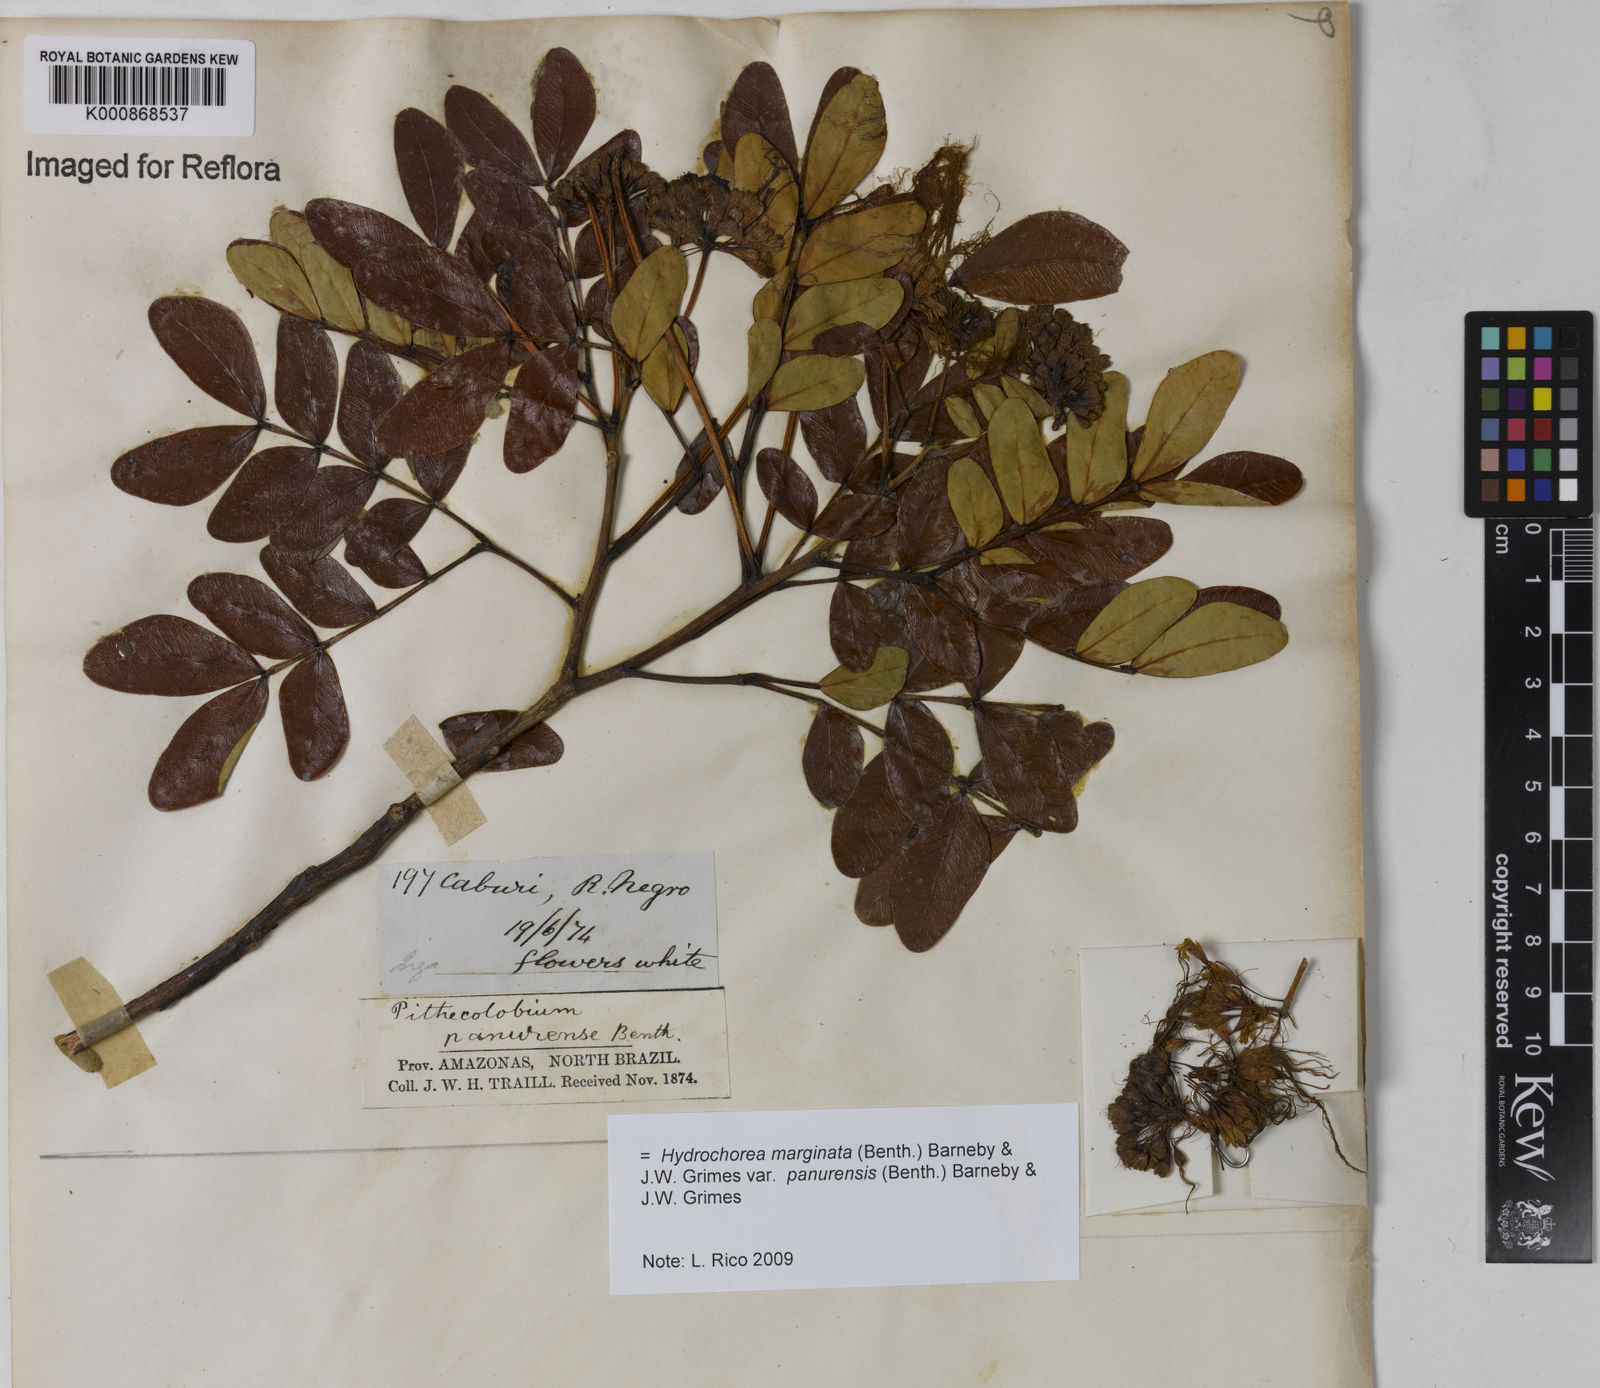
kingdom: Plantae
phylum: Tracheophyta
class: Magnoliopsida
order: Fabales
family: Fabaceae
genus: Hydrochorea
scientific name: Hydrochorea marginata
